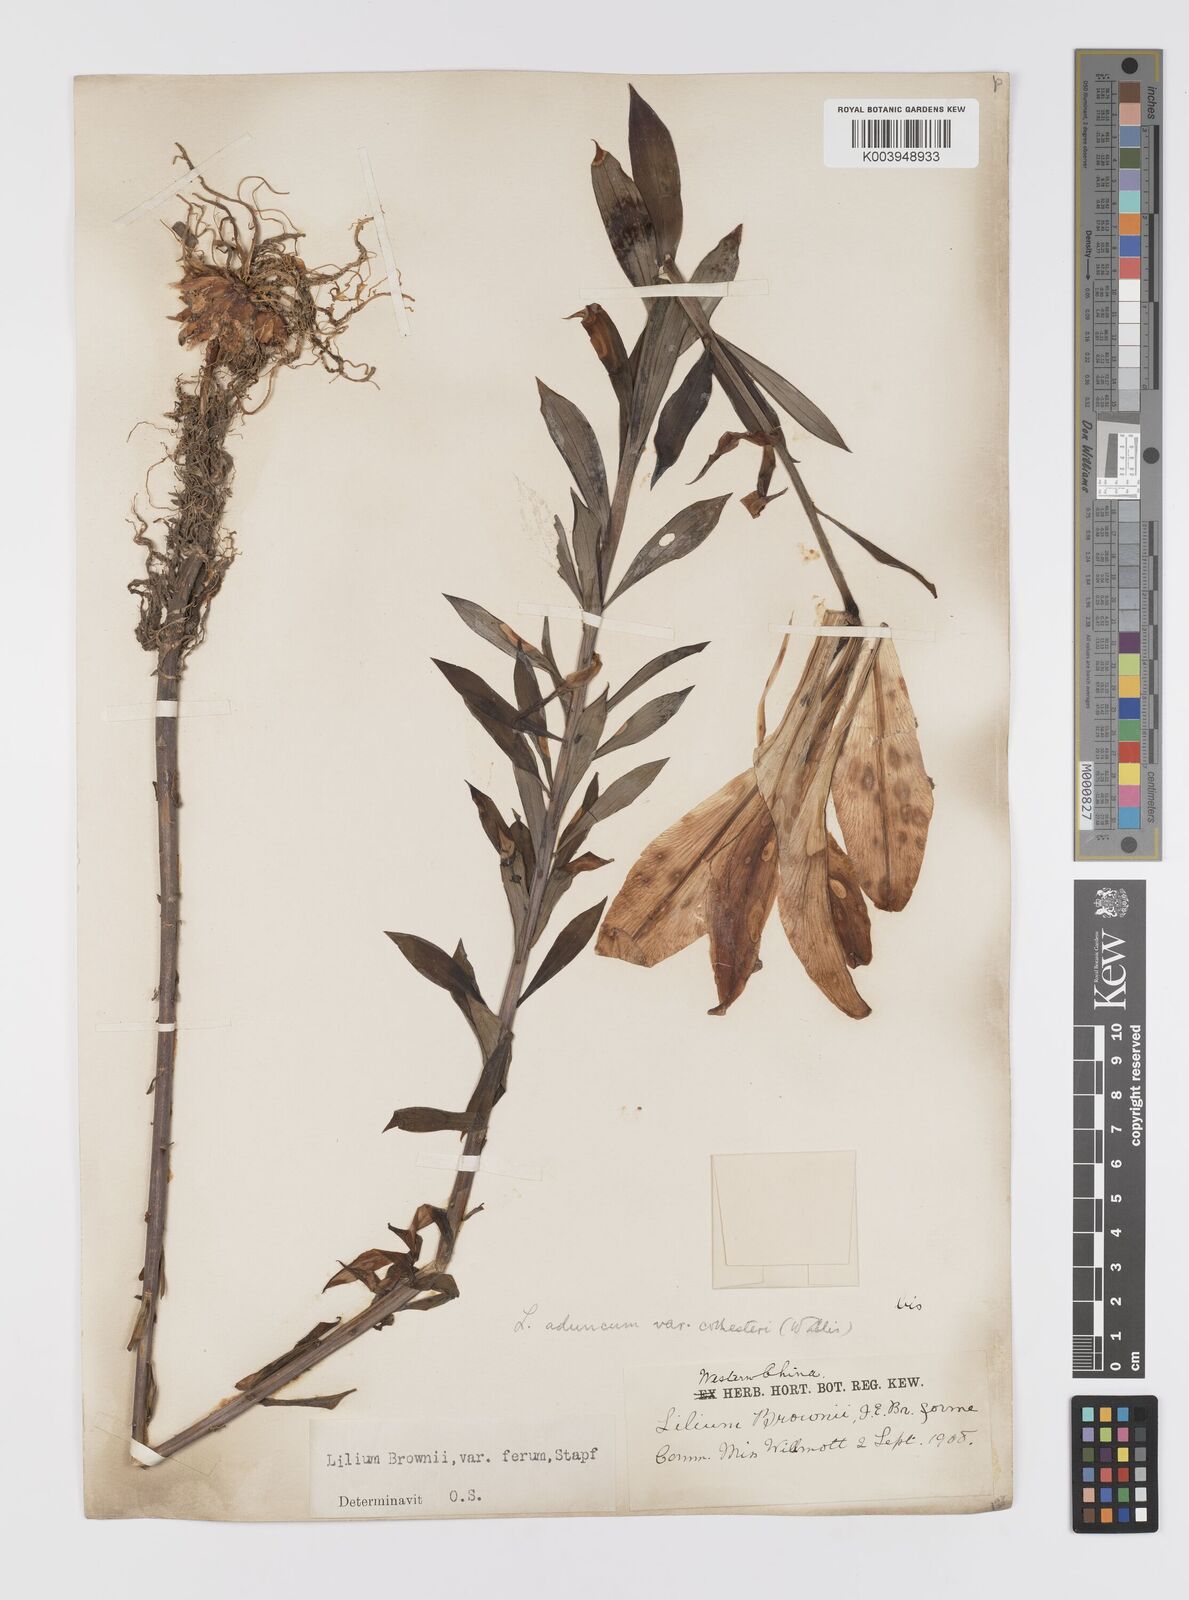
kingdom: Plantae
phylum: Tracheophyta
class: Liliopsida
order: Liliales
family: Liliaceae
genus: Lilium
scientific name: Lilium japonicum
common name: Japanese lily
